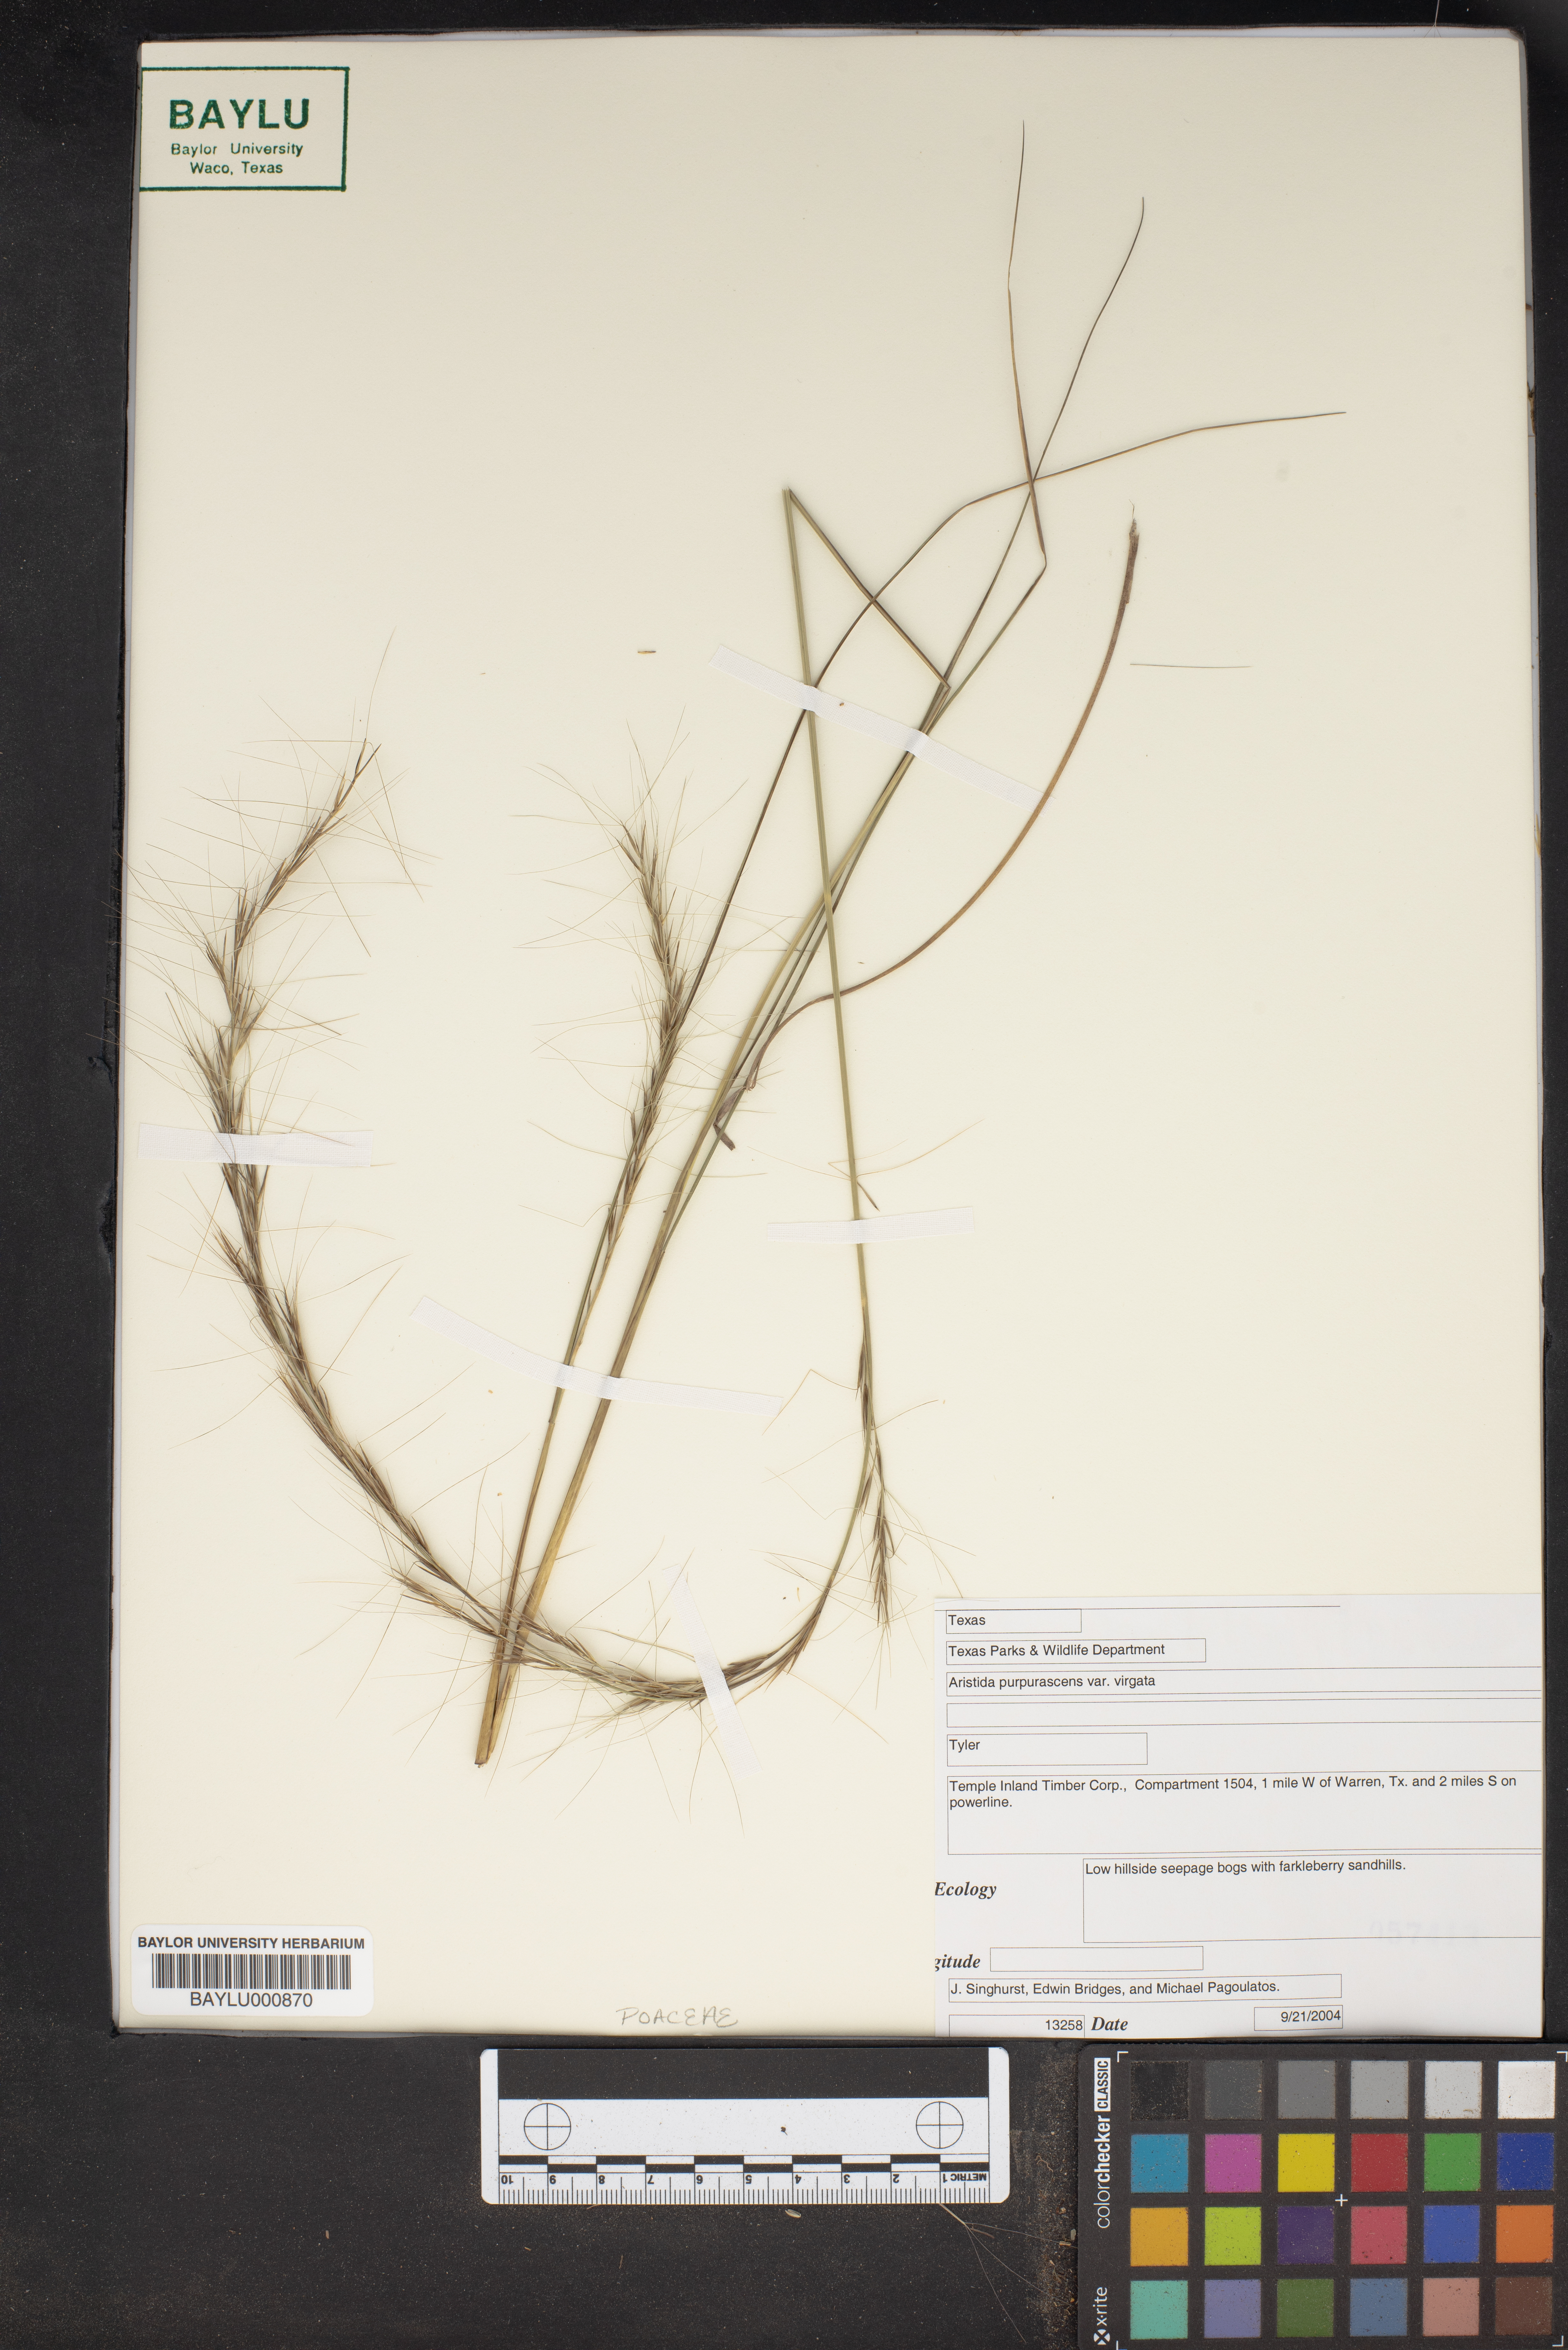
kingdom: Plantae
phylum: Tracheophyta
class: Liliopsida
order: Poales
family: Poaceae
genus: Aristida
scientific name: Aristida virgata
